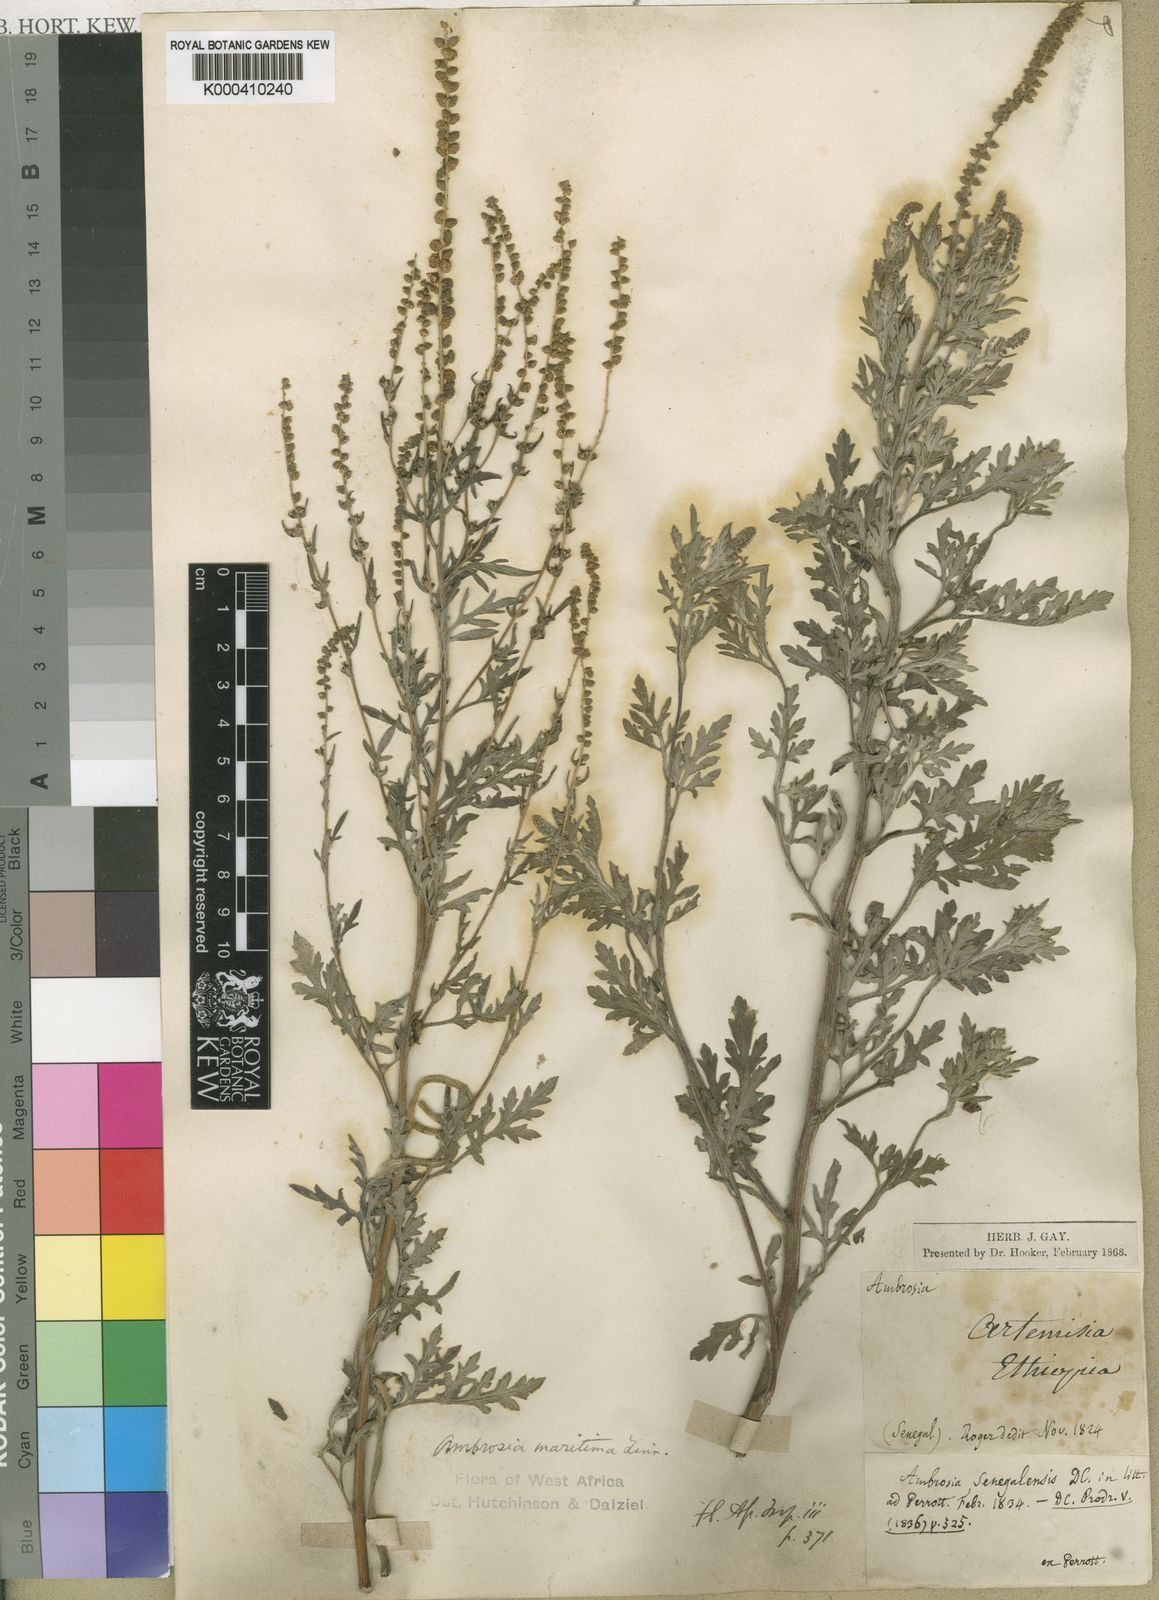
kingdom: Plantae
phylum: Tracheophyta
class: Magnoliopsida
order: Asterales
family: Asteraceae
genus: Ambrosia
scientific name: Ambrosia maritima
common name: Sea ambrosia
